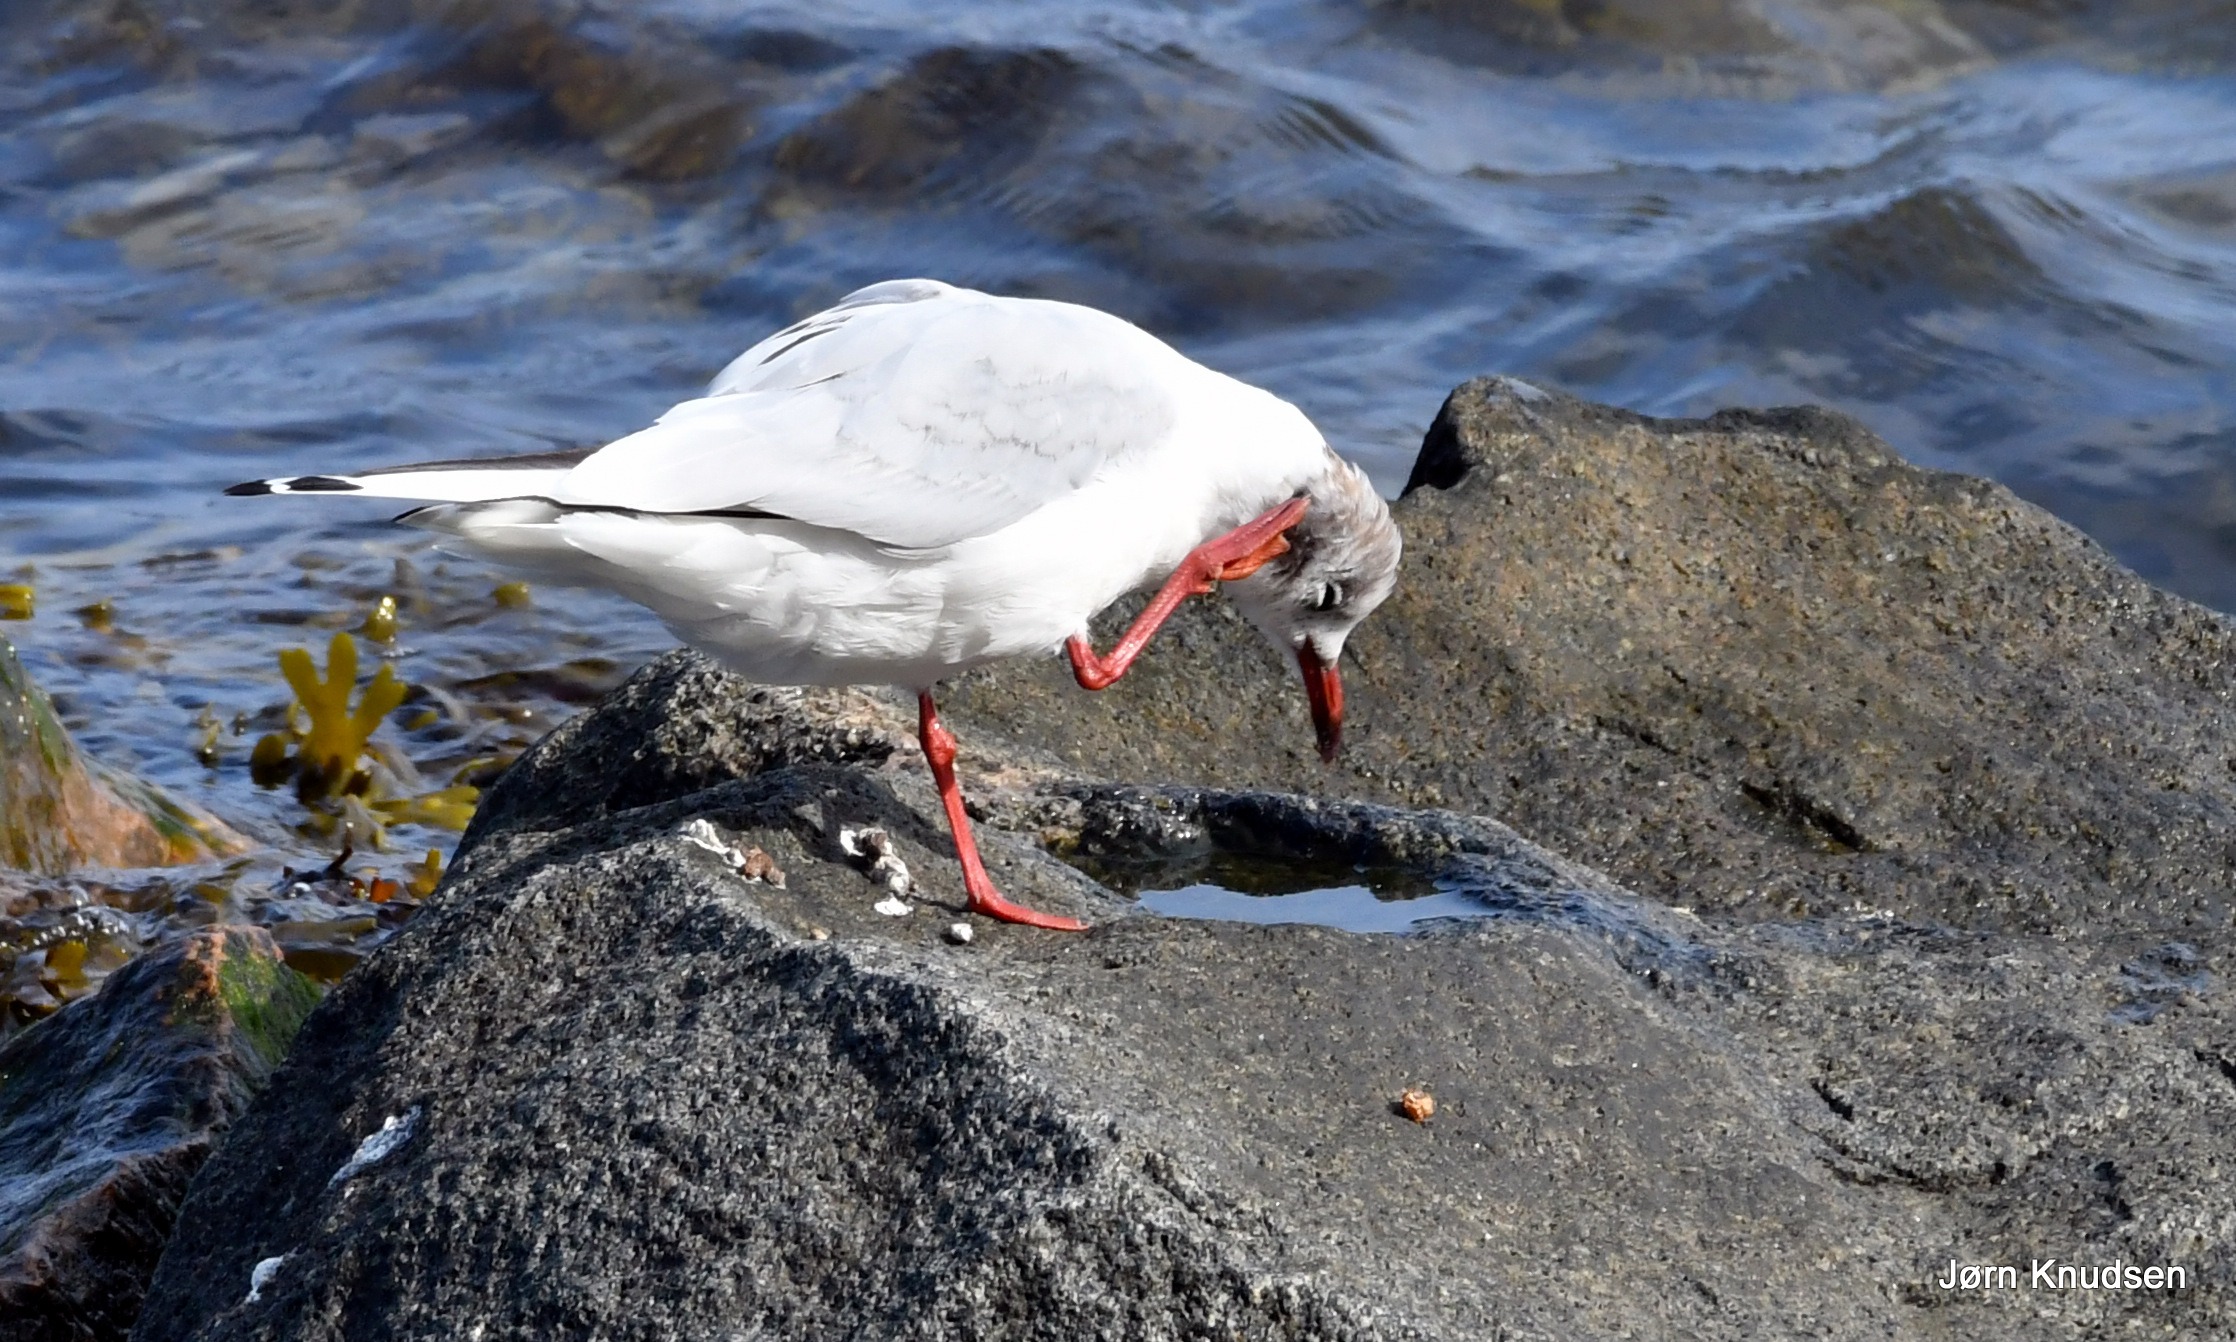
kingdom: Animalia
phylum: Chordata
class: Aves
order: Charadriiformes
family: Laridae
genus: Chroicocephalus
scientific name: Chroicocephalus ridibundus
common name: Hættemåge
